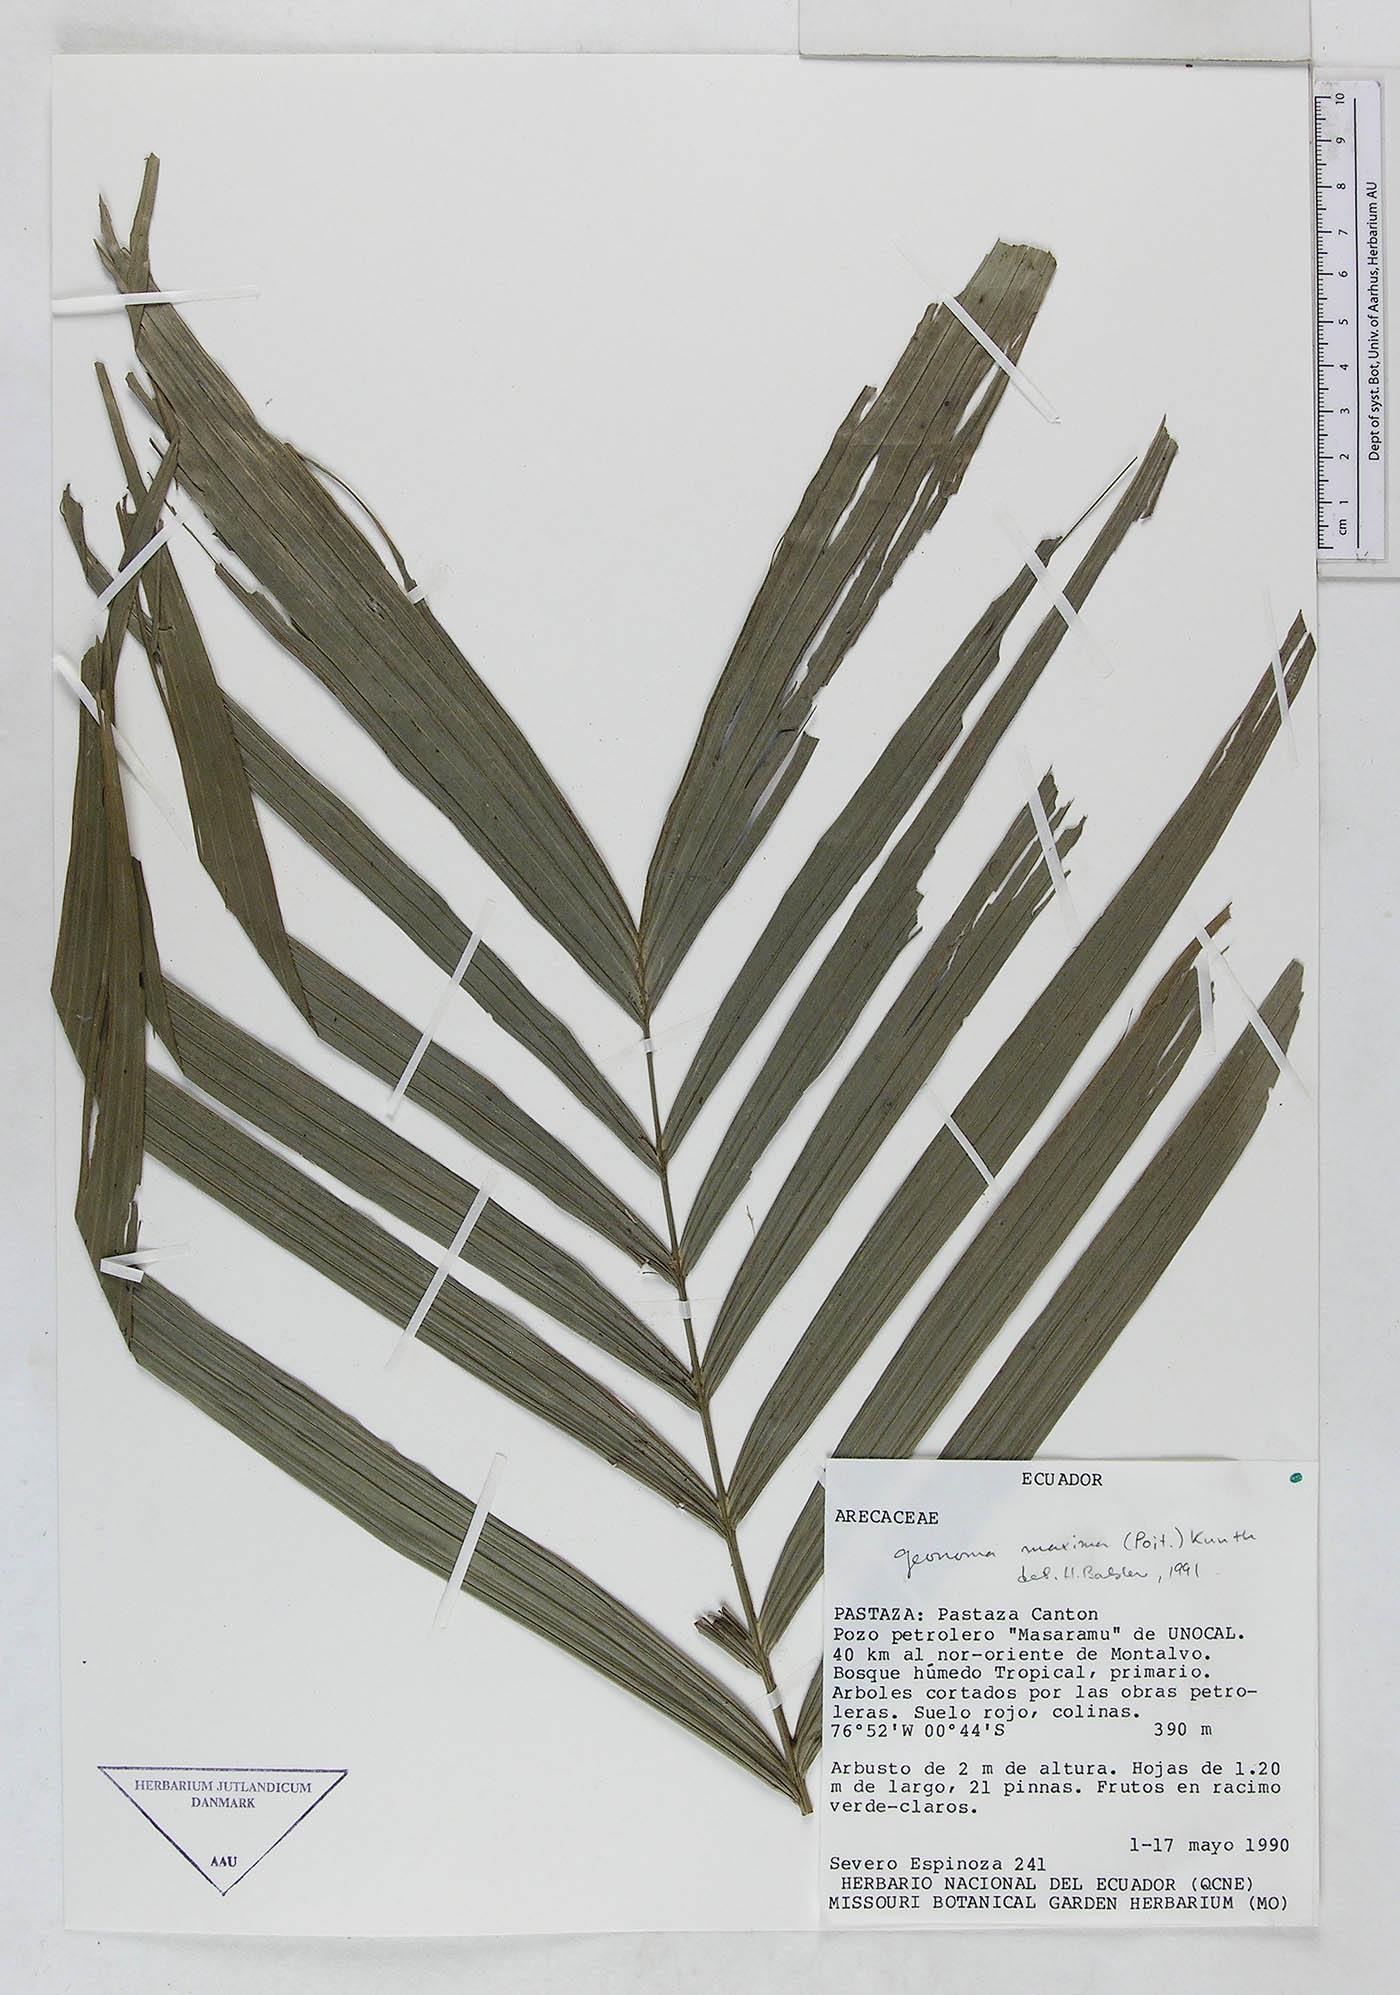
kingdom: Plantae
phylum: Tracheophyta
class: Liliopsida
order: Arecales
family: Arecaceae
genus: Geonoma
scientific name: Geonoma maxima
